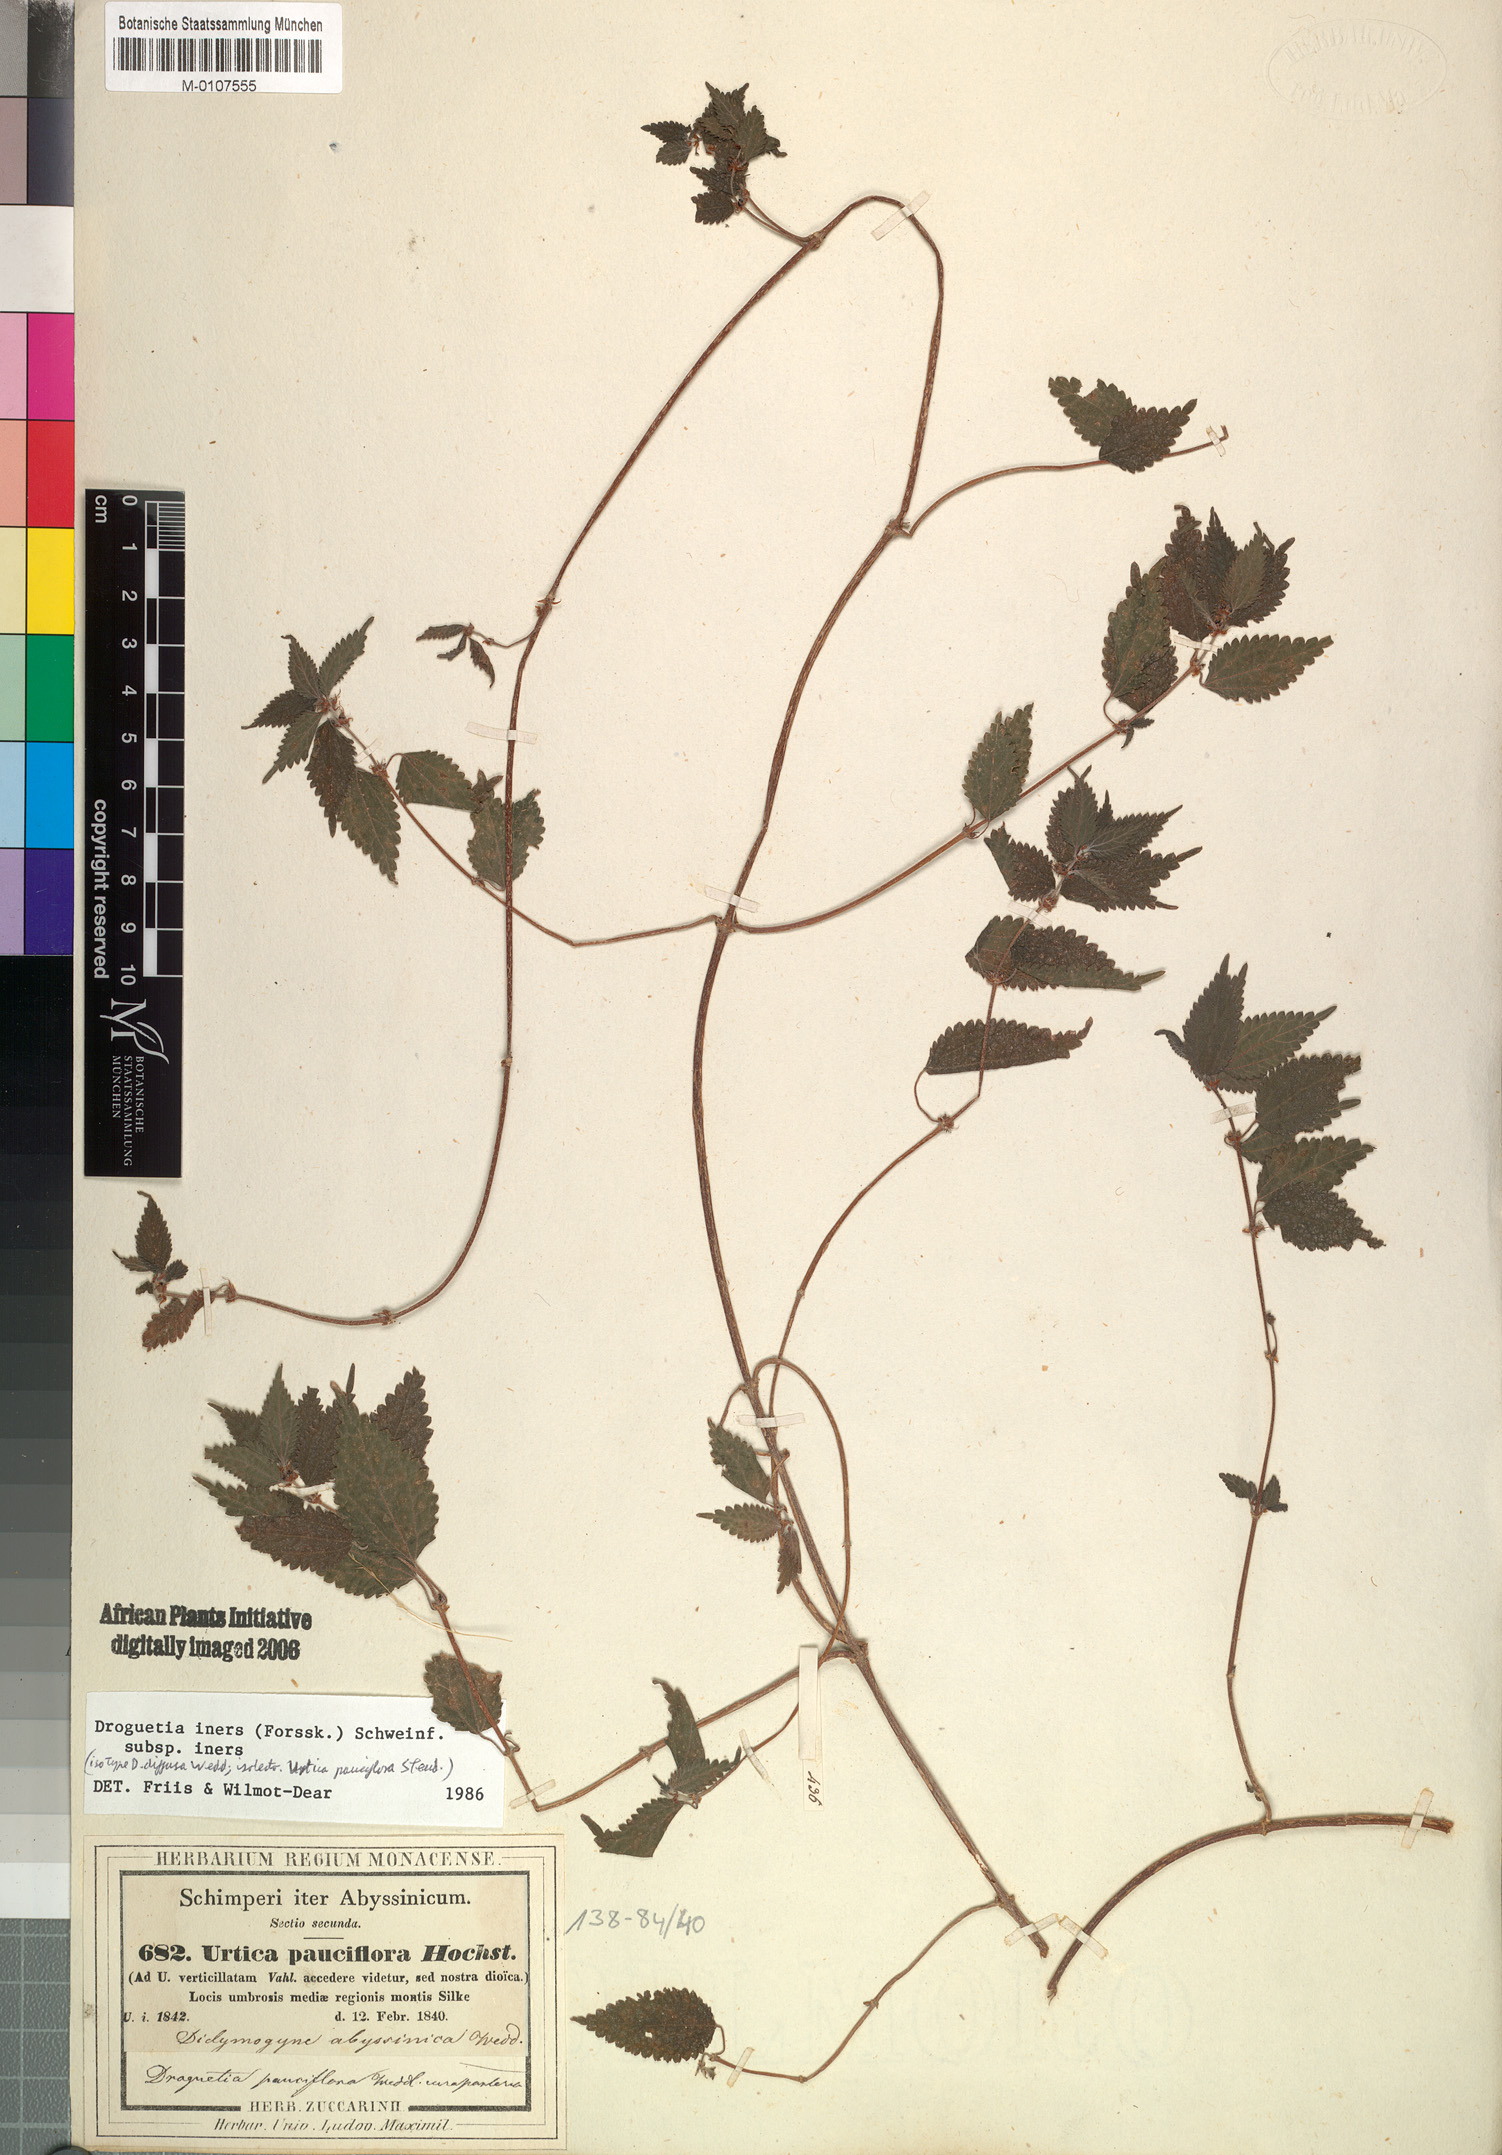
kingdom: Plantae
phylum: Tracheophyta
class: Magnoliopsida
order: Rosales
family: Urticaceae
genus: Droguetia
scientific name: Droguetia iners
